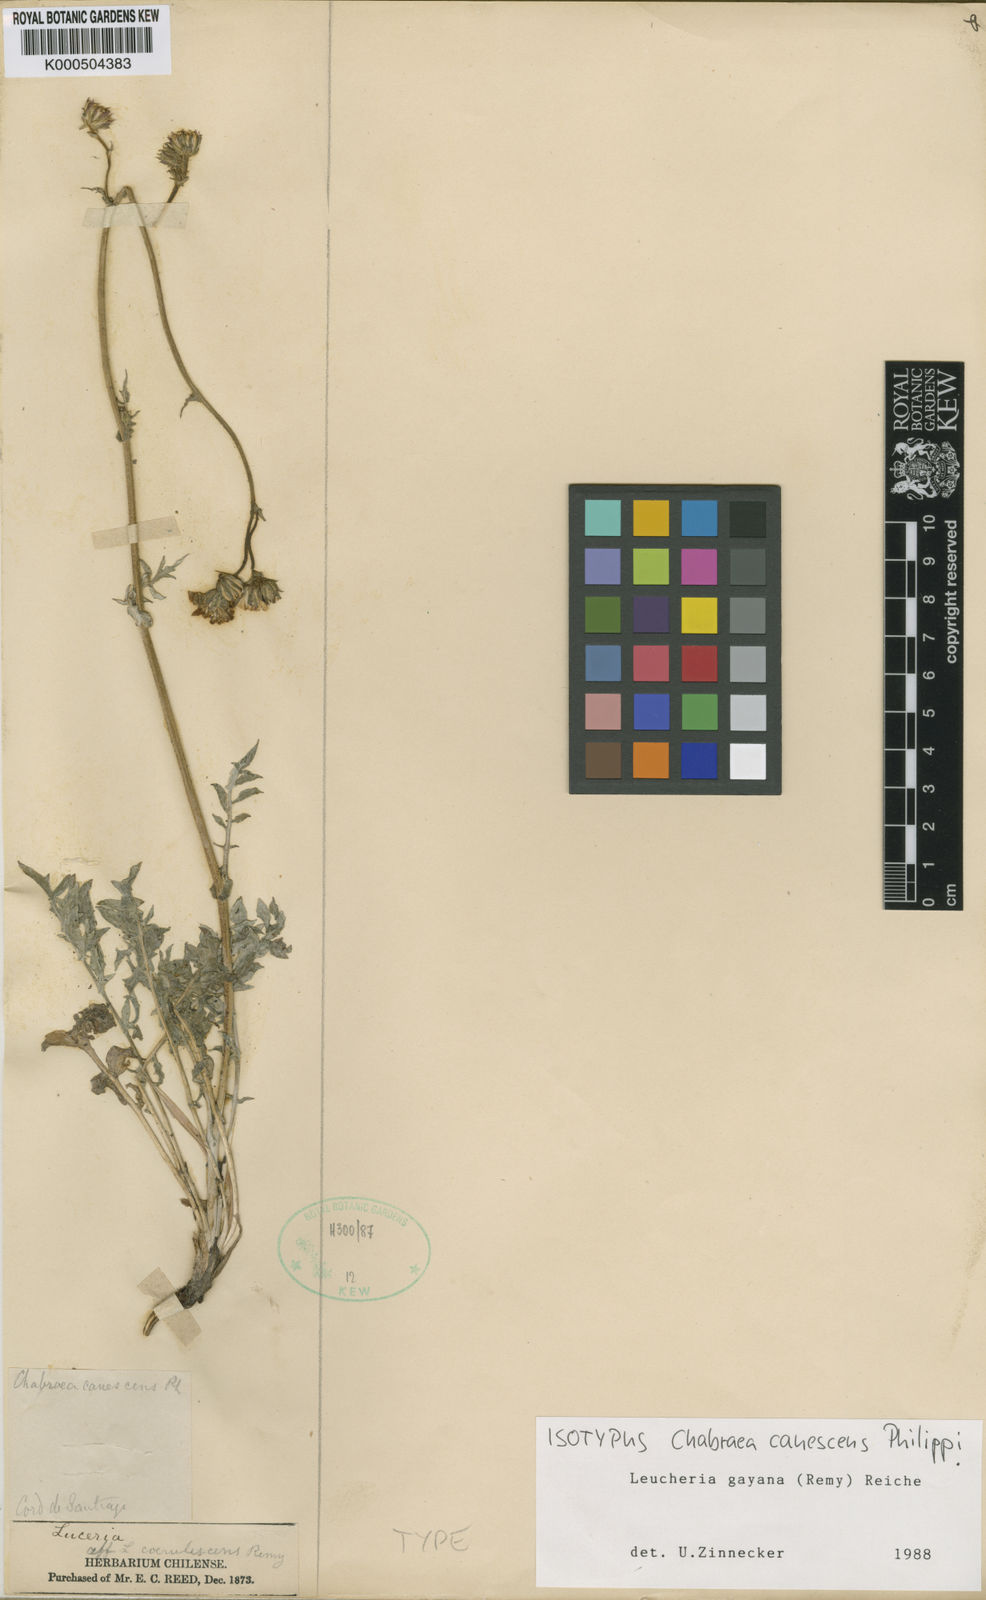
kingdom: Plantae
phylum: Tracheophyta
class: Magnoliopsida
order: Asterales
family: Asteraceae
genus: Leucheria
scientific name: Leucheria gayana
